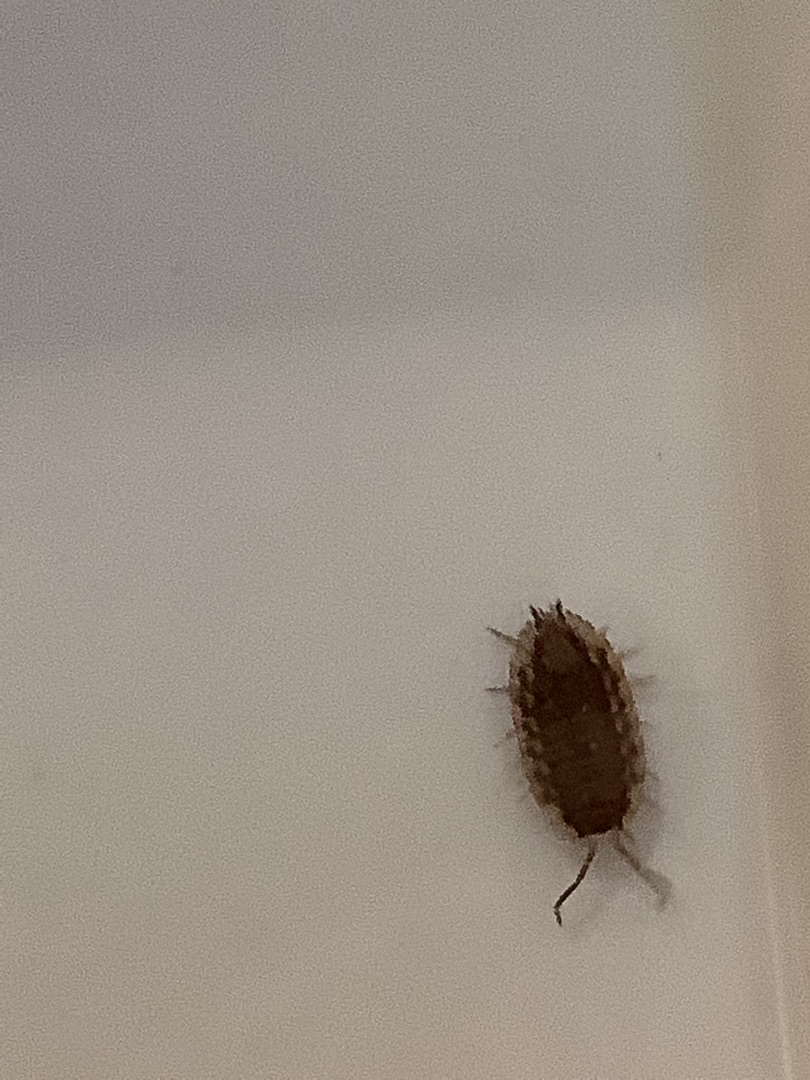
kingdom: Animalia
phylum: Arthropoda
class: Malacostraca
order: Isopoda
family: Oniscidae
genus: Oniscus
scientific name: Oniscus asellus
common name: Glat bænkebider
